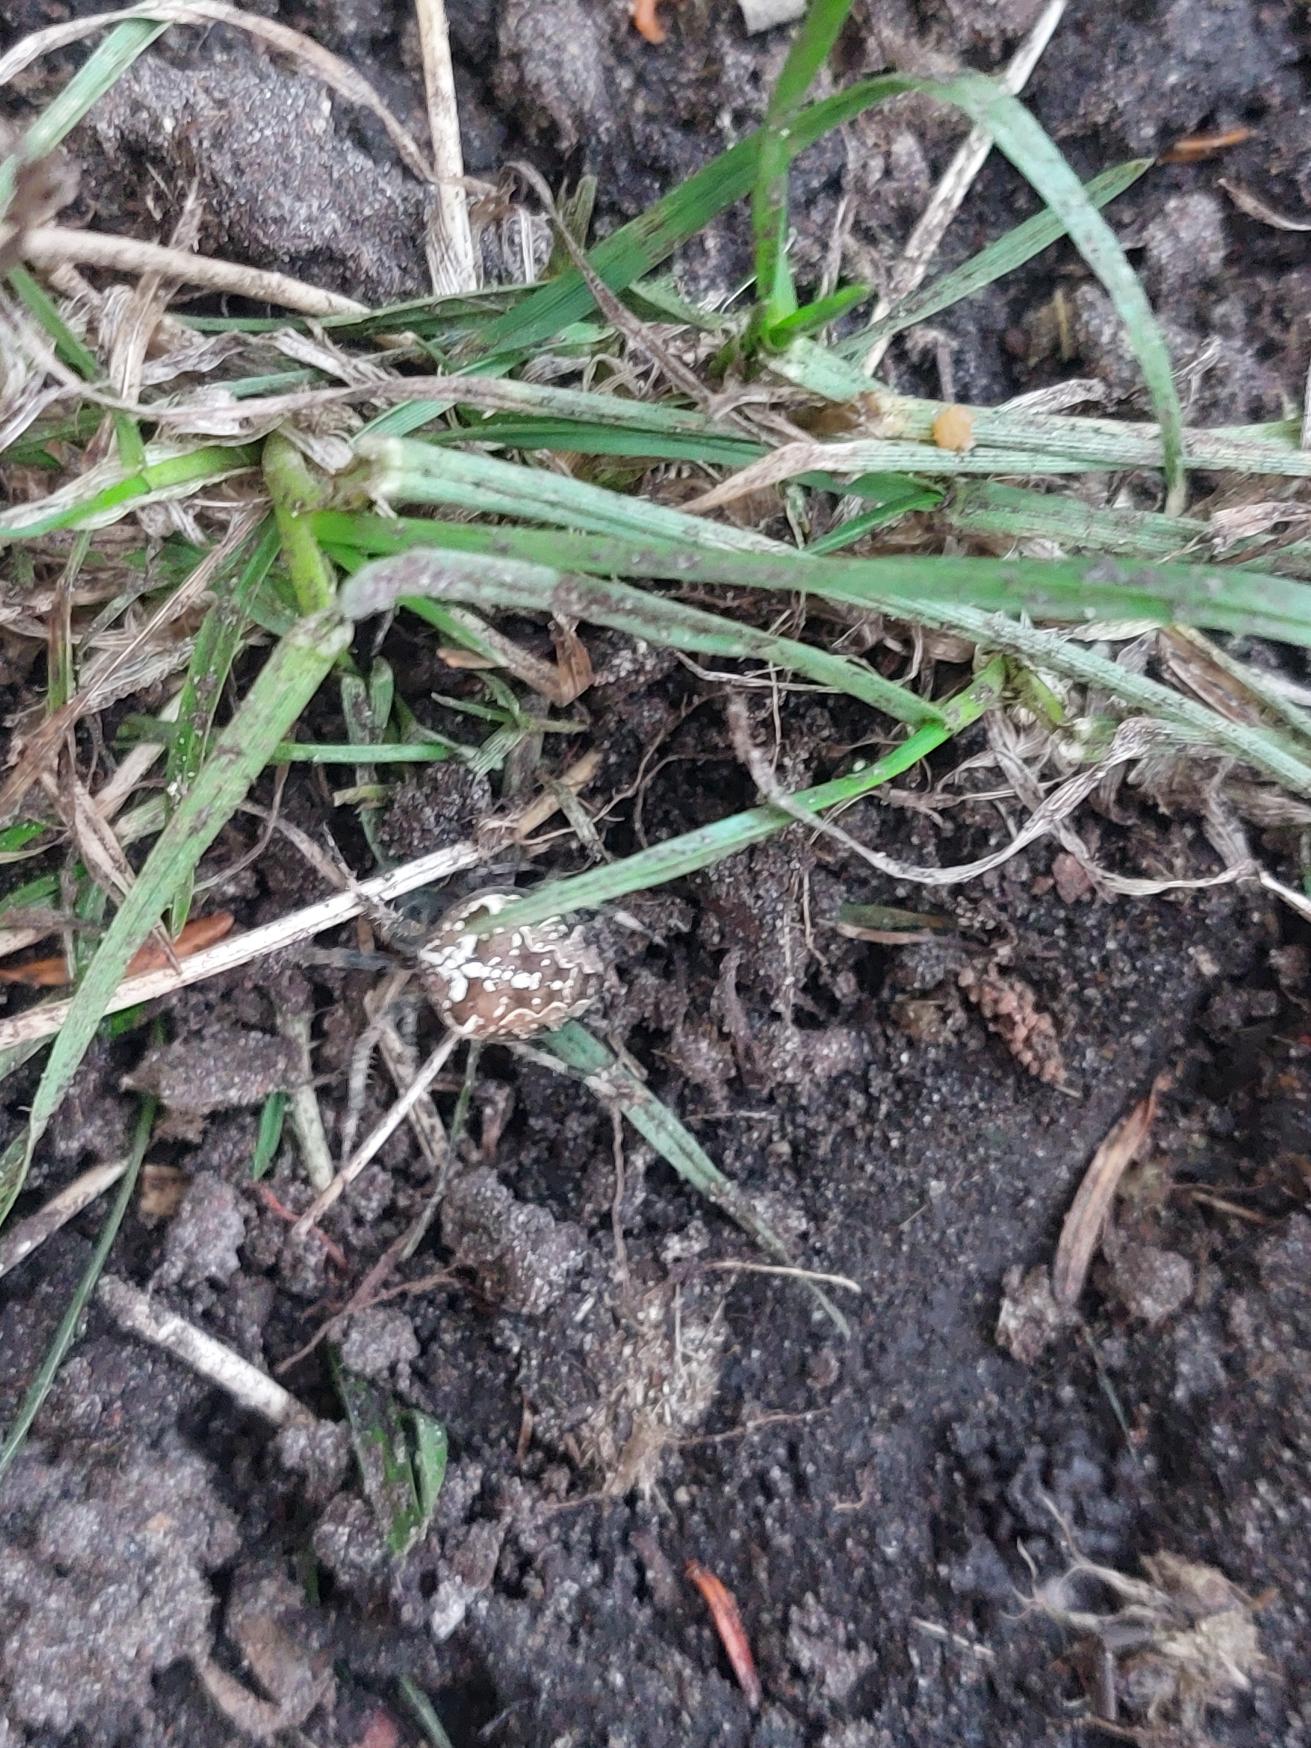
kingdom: Animalia
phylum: Arthropoda
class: Arachnida
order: Araneae
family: Araneidae
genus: Araneus
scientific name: Araneus diadematus
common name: Korsedderkop
